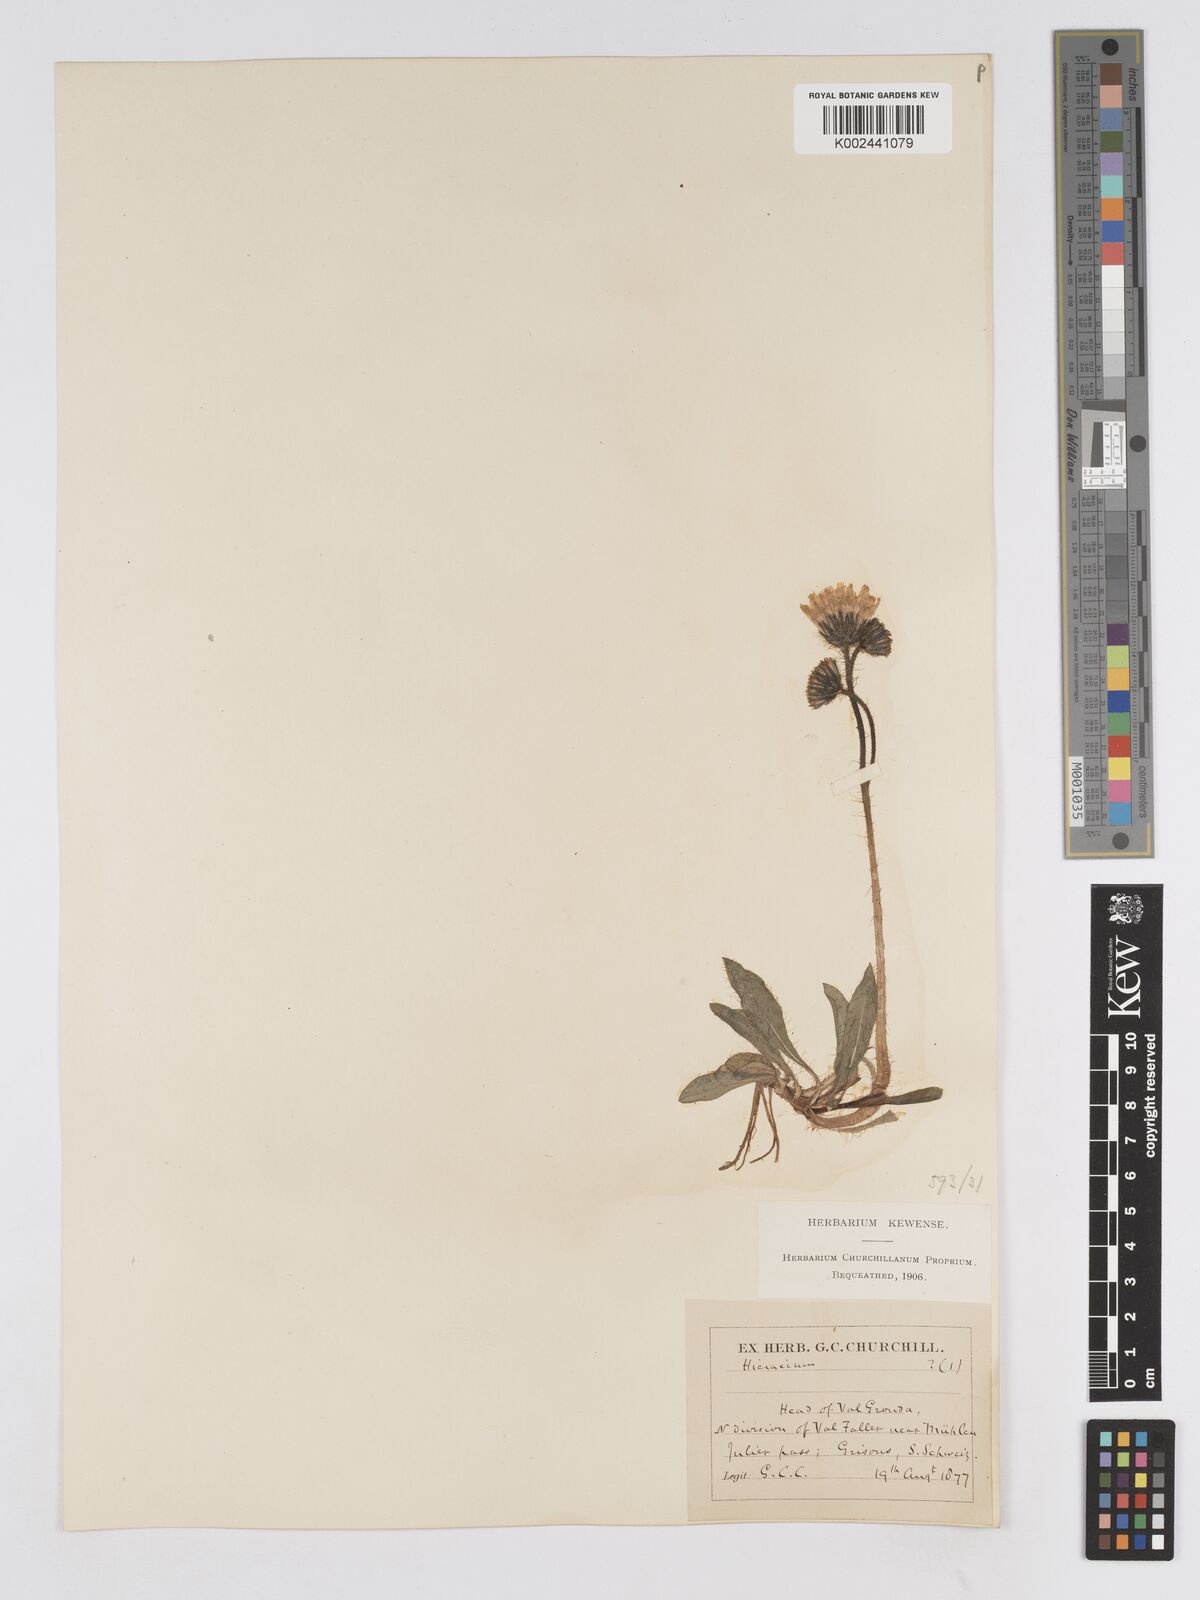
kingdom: Plantae
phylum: Tracheophyta
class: Magnoliopsida
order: Asterales
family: Asteraceae
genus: Pilosella
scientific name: Pilosella sphaerocephala
